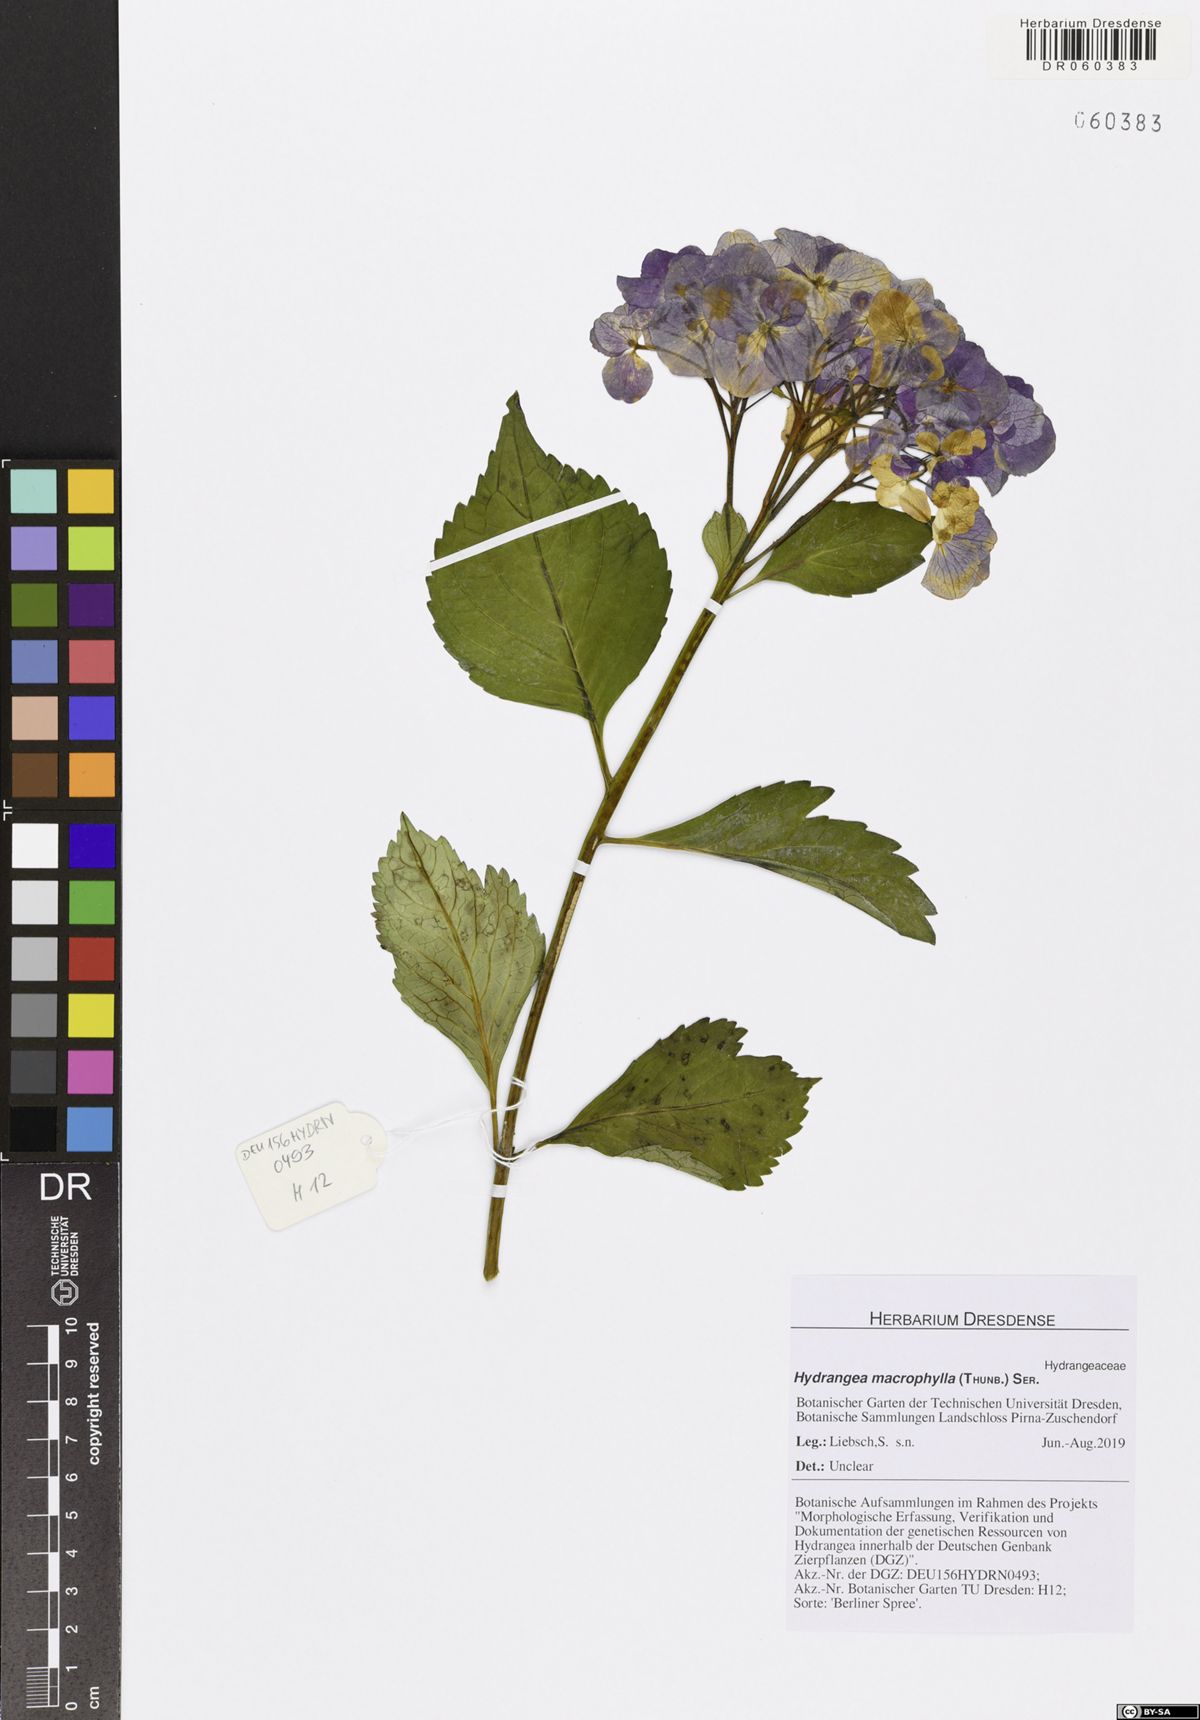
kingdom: Plantae
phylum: Tracheophyta
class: Magnoliopsida
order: Cornales
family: Hydrangeaceae
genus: Hydrangea
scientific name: Hydrangea macrophylla
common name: Hydrangea
